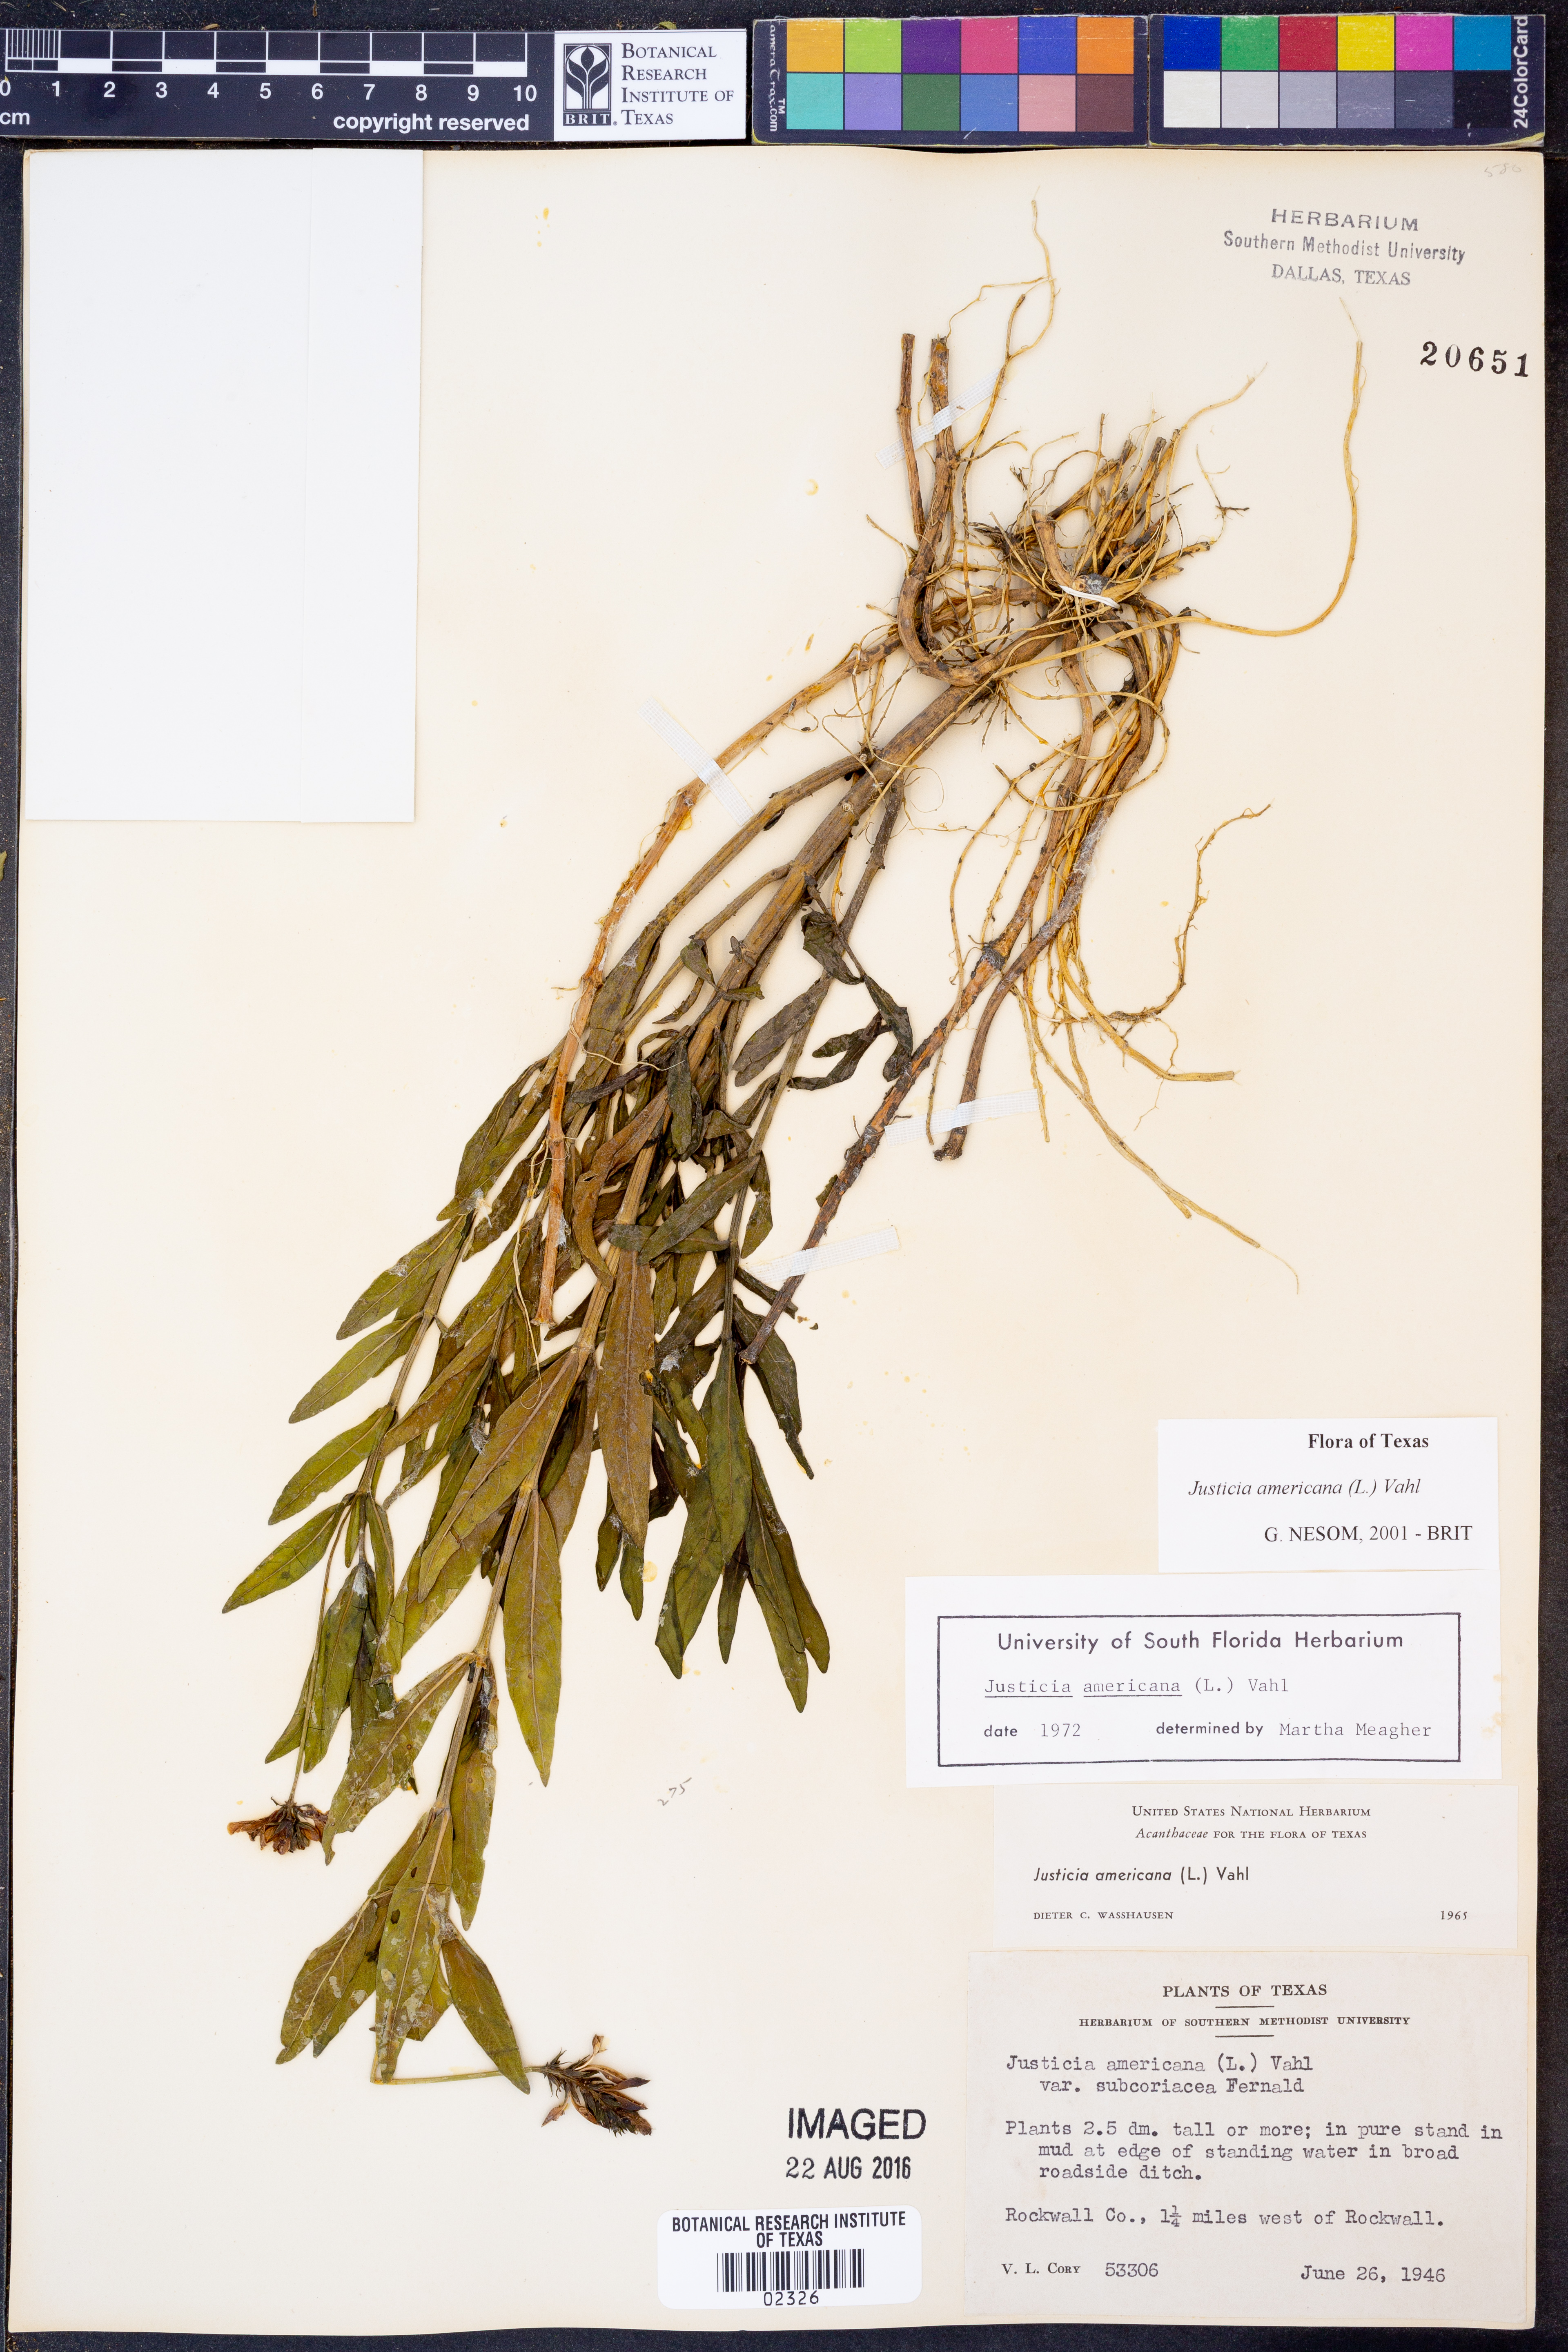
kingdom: Plantae
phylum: Tracheophyta
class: Magnoliopsida
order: Lamiales
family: Acanthaceae
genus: Dianthera
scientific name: Dianthera americana
